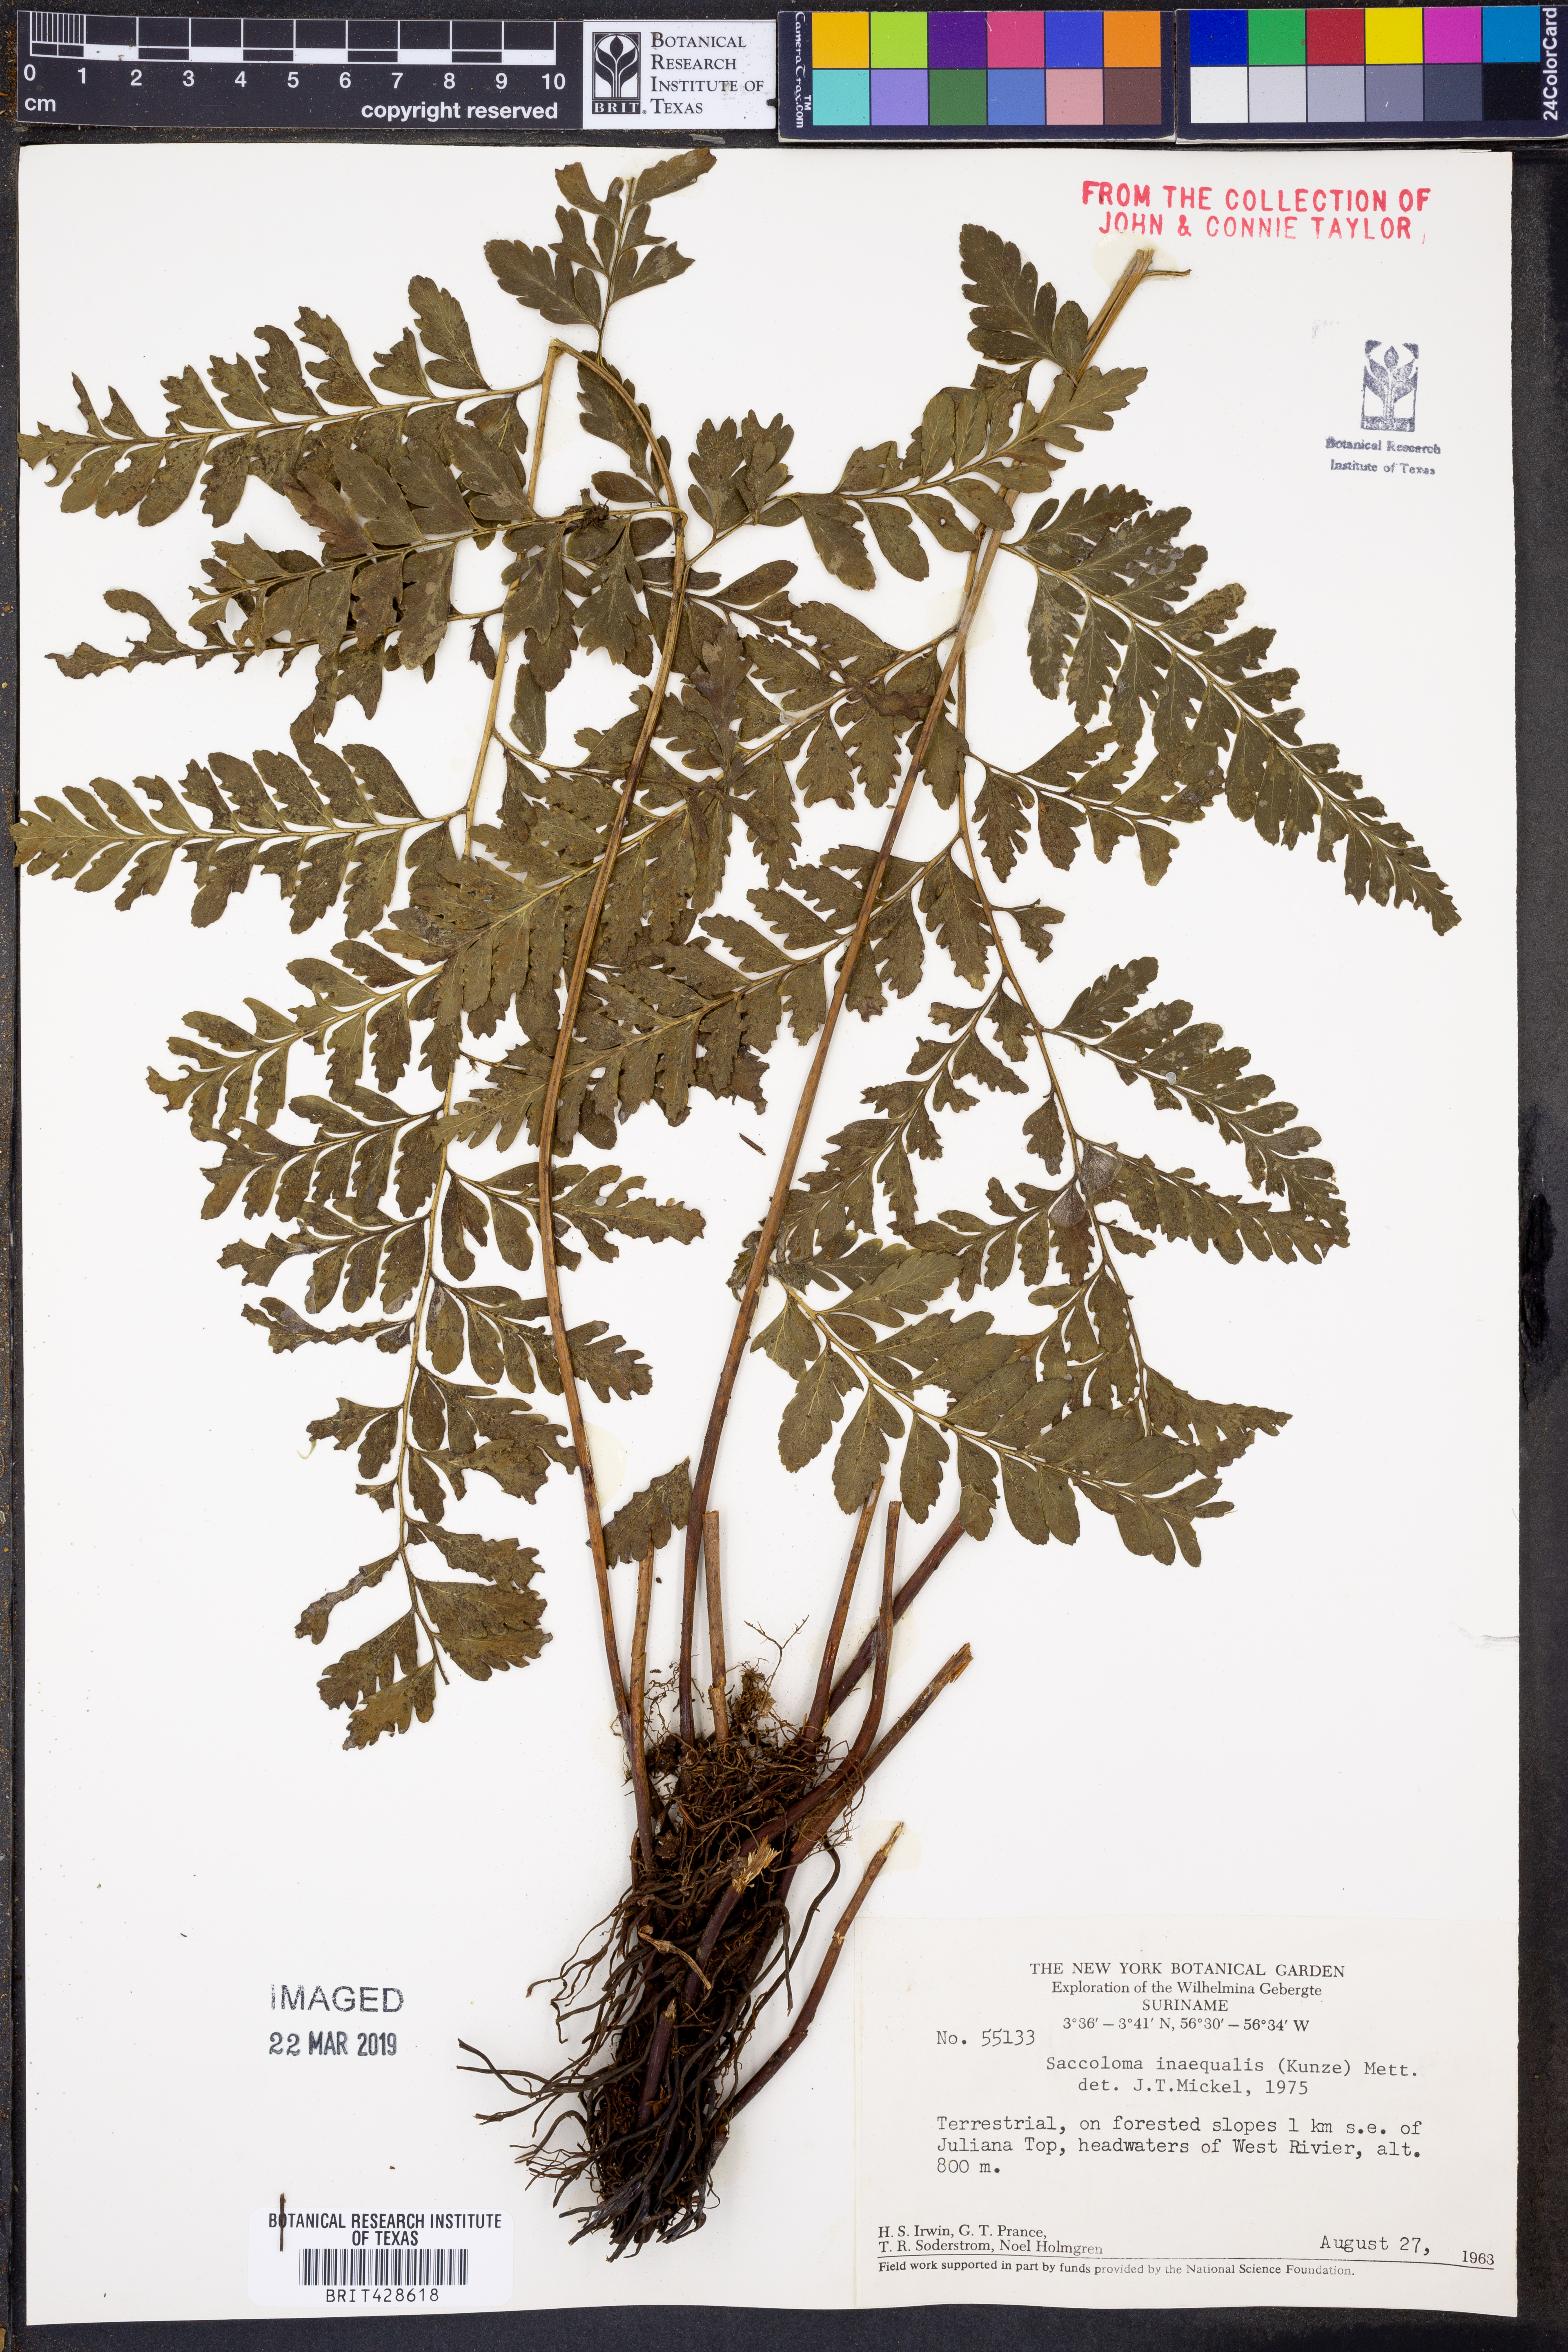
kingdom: Plantae
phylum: Tracheophyta
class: Polypodiopsida
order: Polypodiales
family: Saccolomataceae
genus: Saccoloma
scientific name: Saccoloma inaequale
